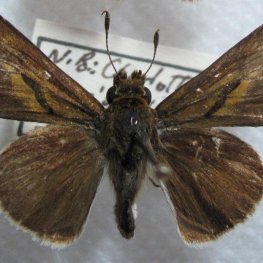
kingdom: Animalia
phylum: Arthropoda
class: Insecta
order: Lepidoptera
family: Hesperiidae
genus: Euphyes
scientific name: Euphyes bimacula
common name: Two-spotted Skipper
